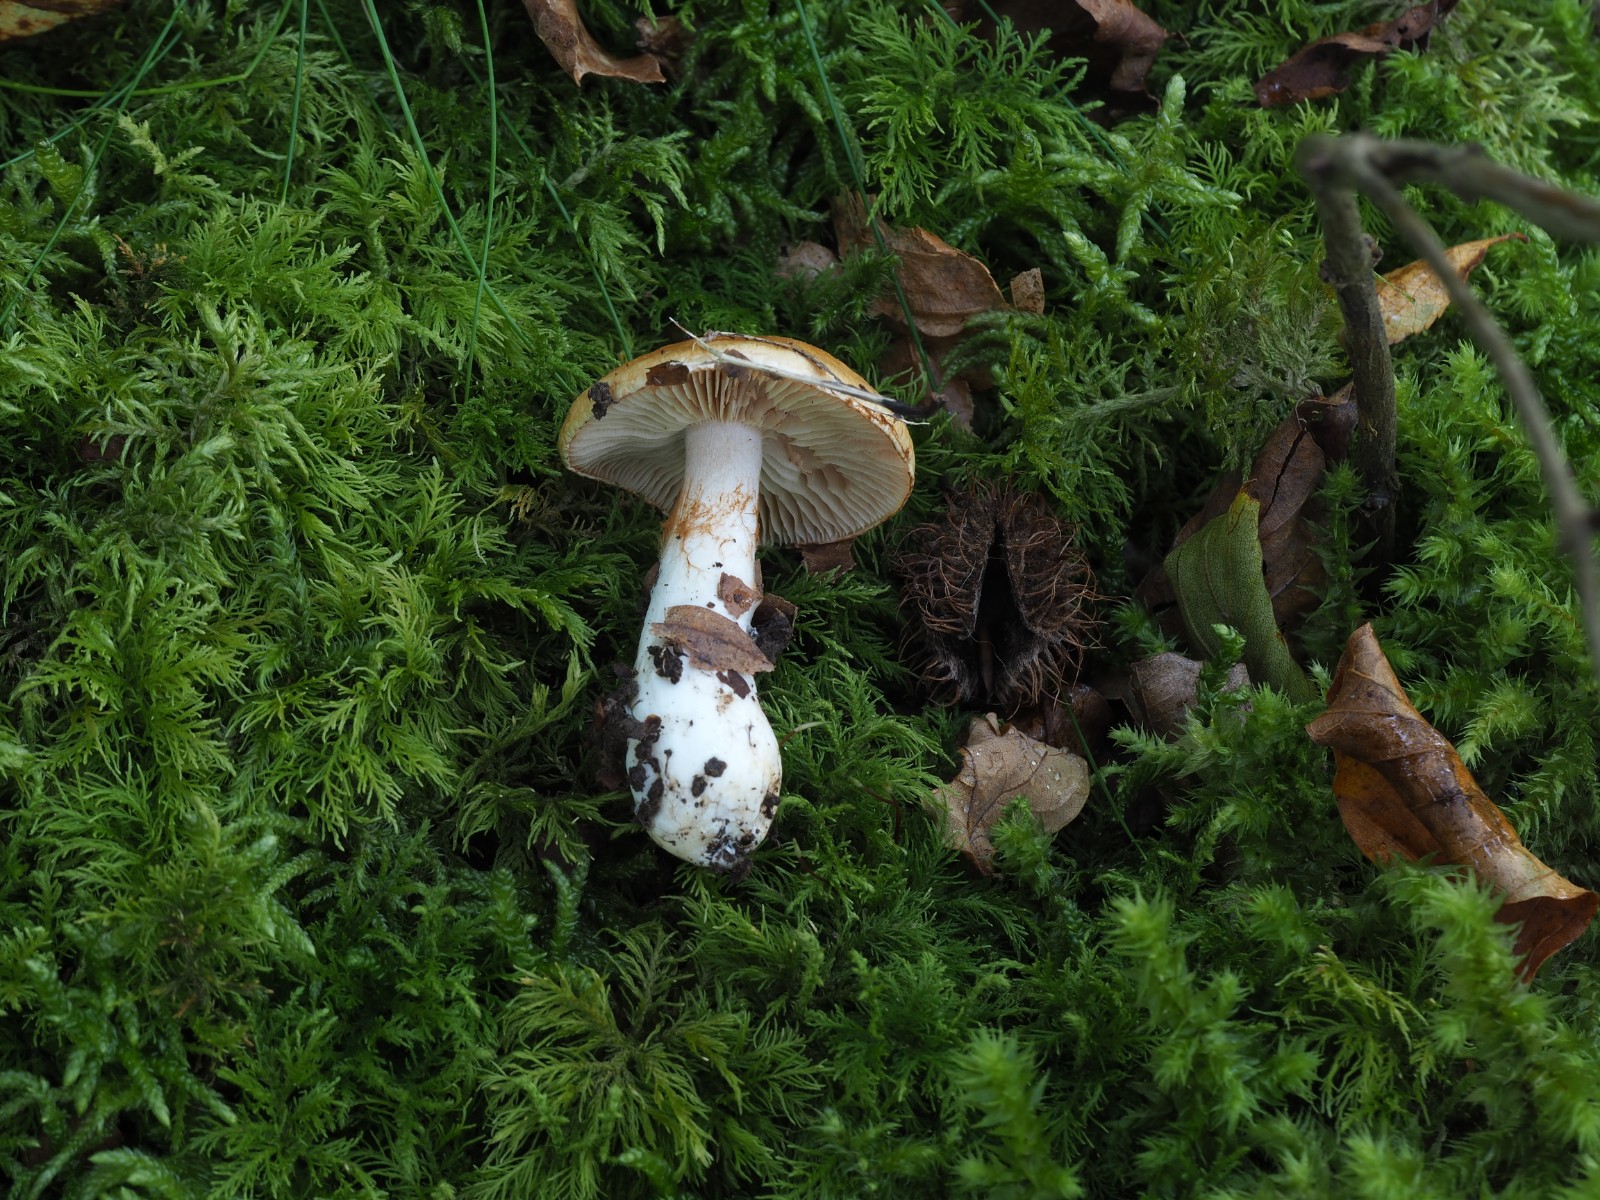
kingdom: Fungi
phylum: Basidiomycota
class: Agaricomycetes
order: Agaricales
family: Cortinariaceae
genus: Thaxterogaster
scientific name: Thaxterogaster emollitus
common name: besk slørhat
